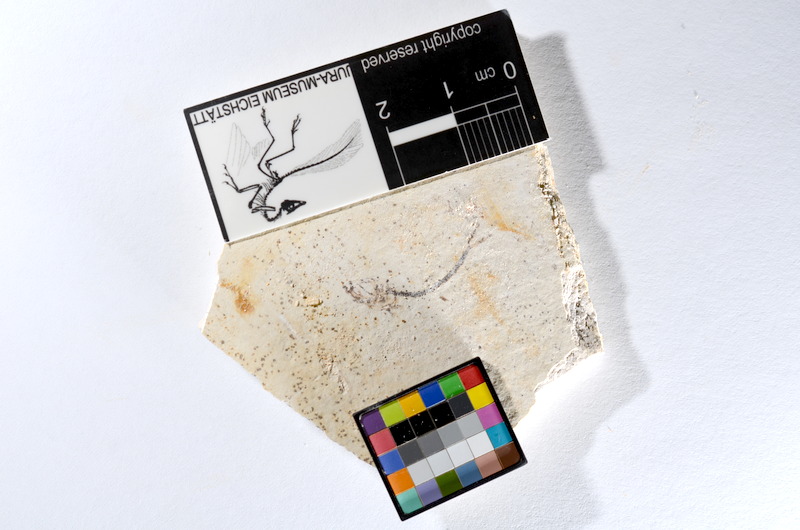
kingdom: Animalia
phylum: Chordata
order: Salmoniformes
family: Orthogonikleithridae
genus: Orthogonikleithrus
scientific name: Orthogonikleithrus hoelli
